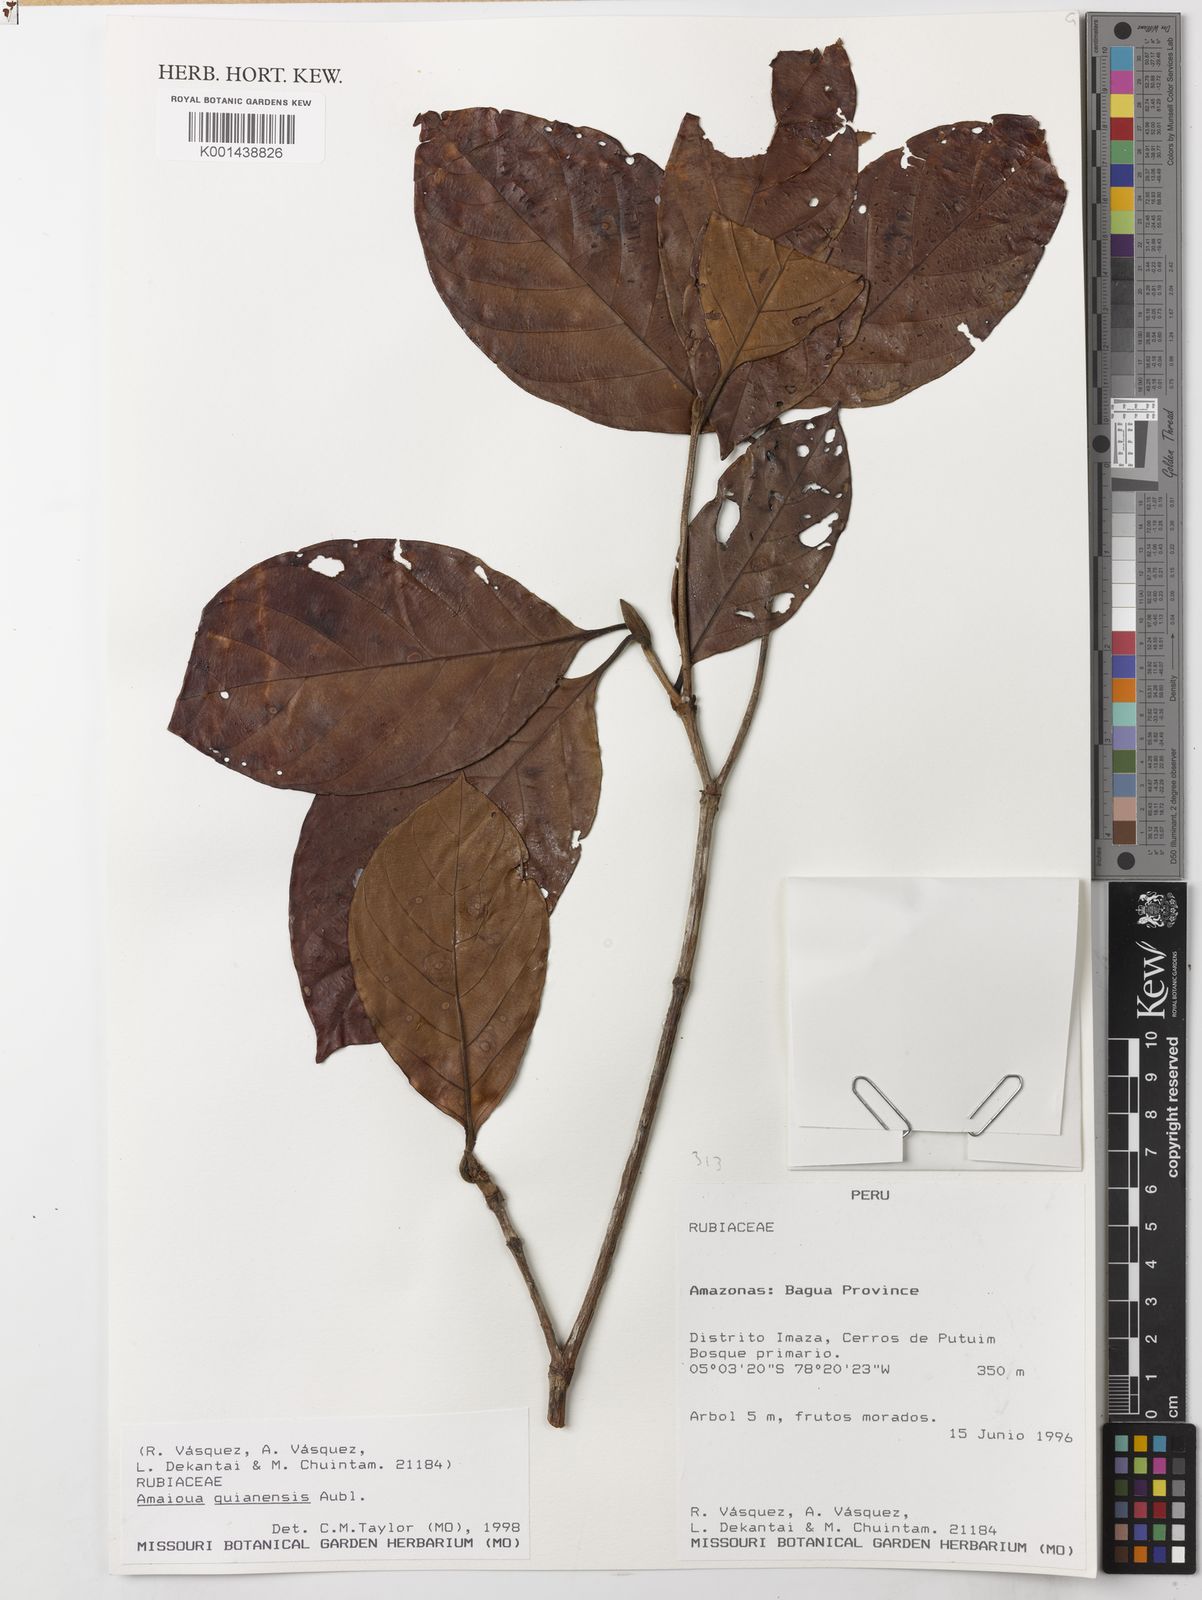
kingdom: Plantae
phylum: Tracheophyta
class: Magnoliopsida
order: Gentianales
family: Rubiaceae
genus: Amaioua
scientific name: Amaioua guianensis
